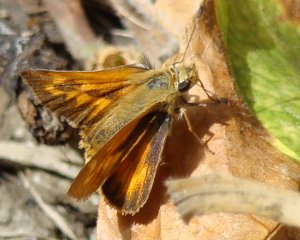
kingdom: Animalia
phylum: Arthropoda
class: Insecta
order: Lepidoptera
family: Hesperiidae
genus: Ochlodes
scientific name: Ochlodes sylvanoides
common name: Woodland Skipper
